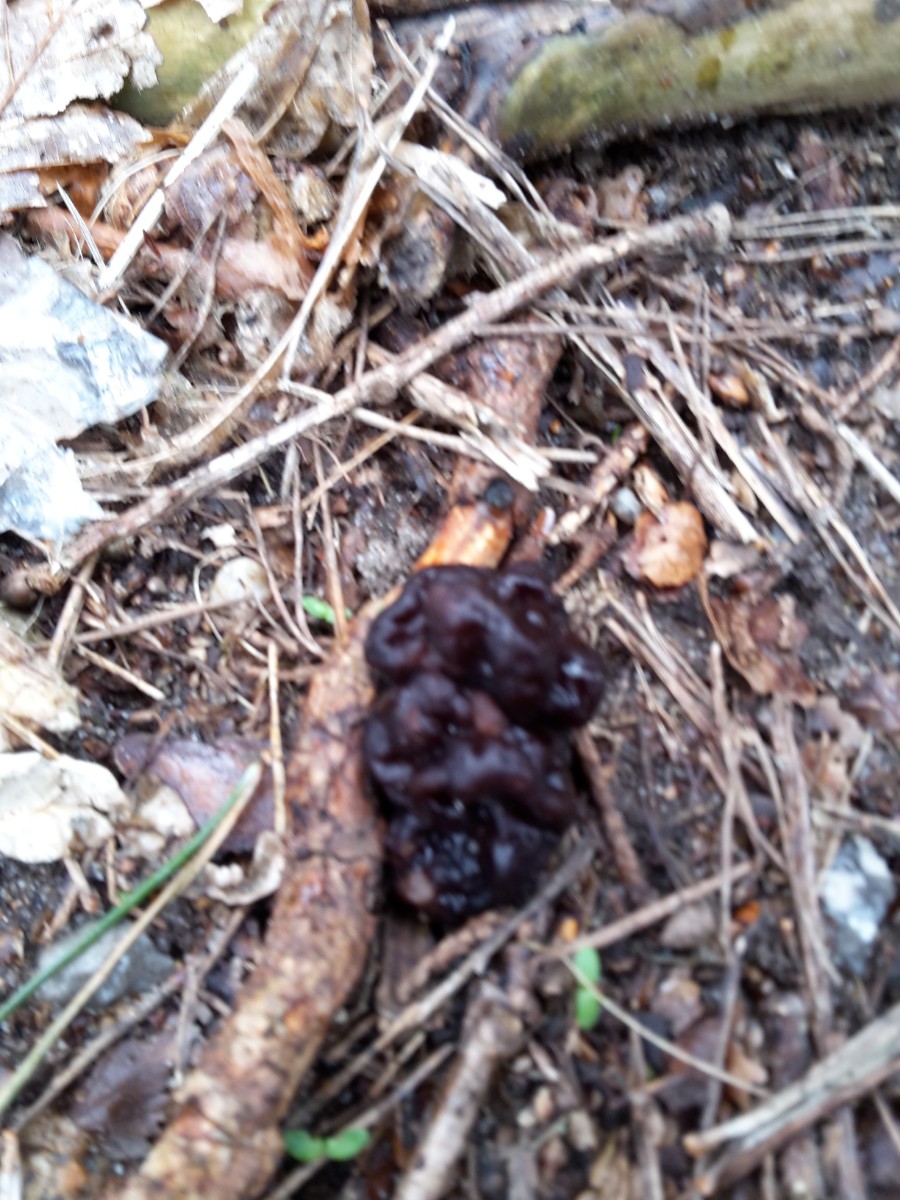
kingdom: Fungi
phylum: Ascomycota
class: Pezizomycetes
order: Pezizales
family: Discinaceae
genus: Gyromitra
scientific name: Gyromitra esculenta
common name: ægte stenmorkel
